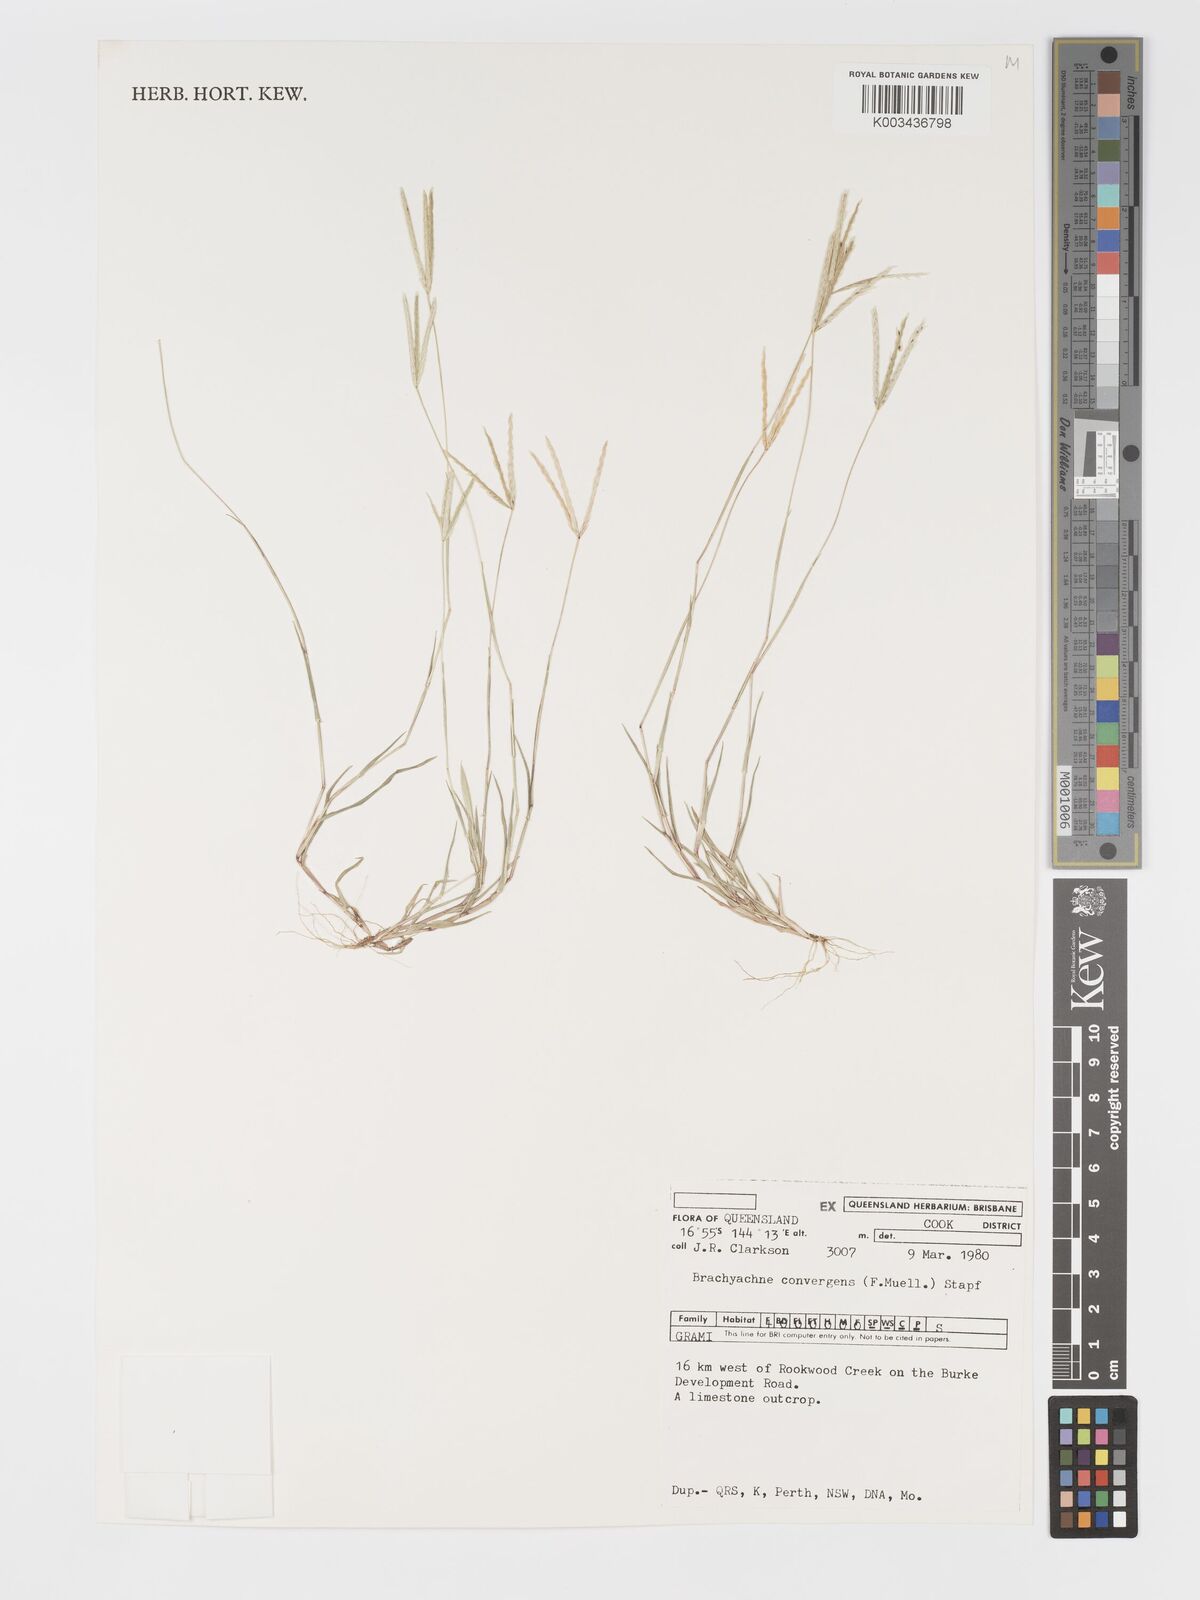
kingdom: Plantae
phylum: Tracheophyta
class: Liliopsida
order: Poales
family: Poaceae
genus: Cynodon
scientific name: Cynodon convergens
